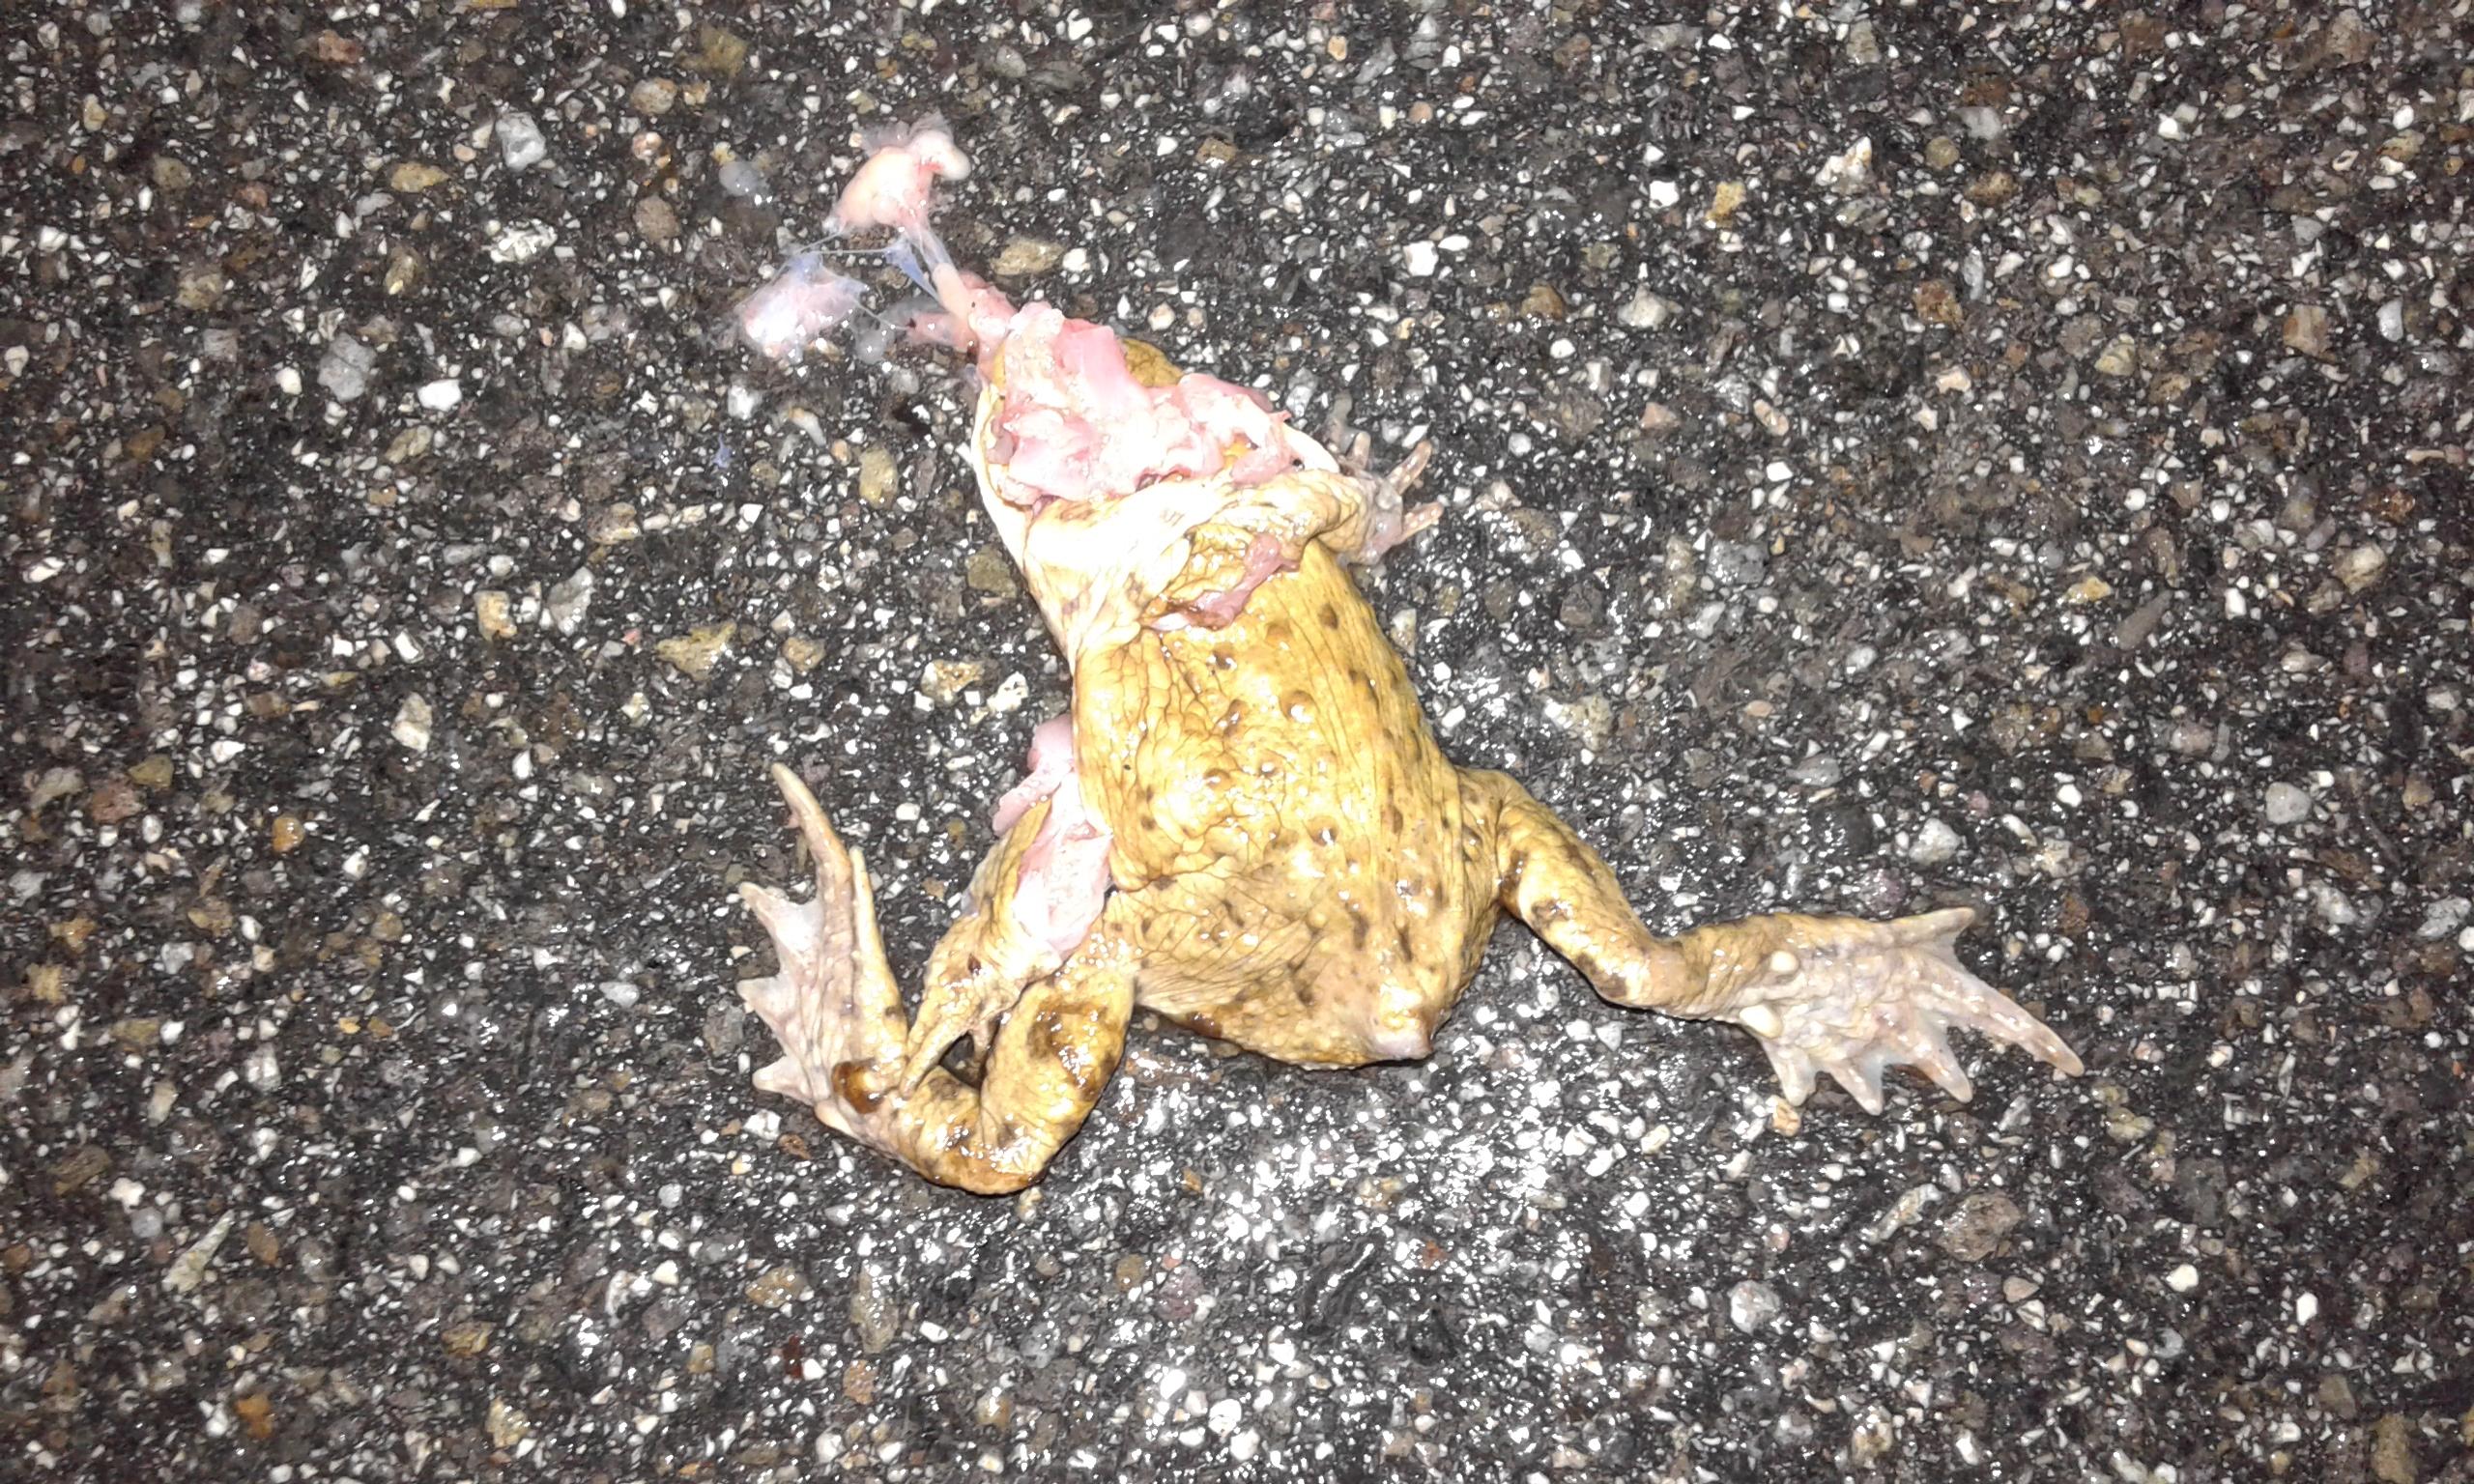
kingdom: Animalia
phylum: Chordata
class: Amphibia
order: Anura
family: Bufonidae
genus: Bufo
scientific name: Bufo bufo
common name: Common toad
